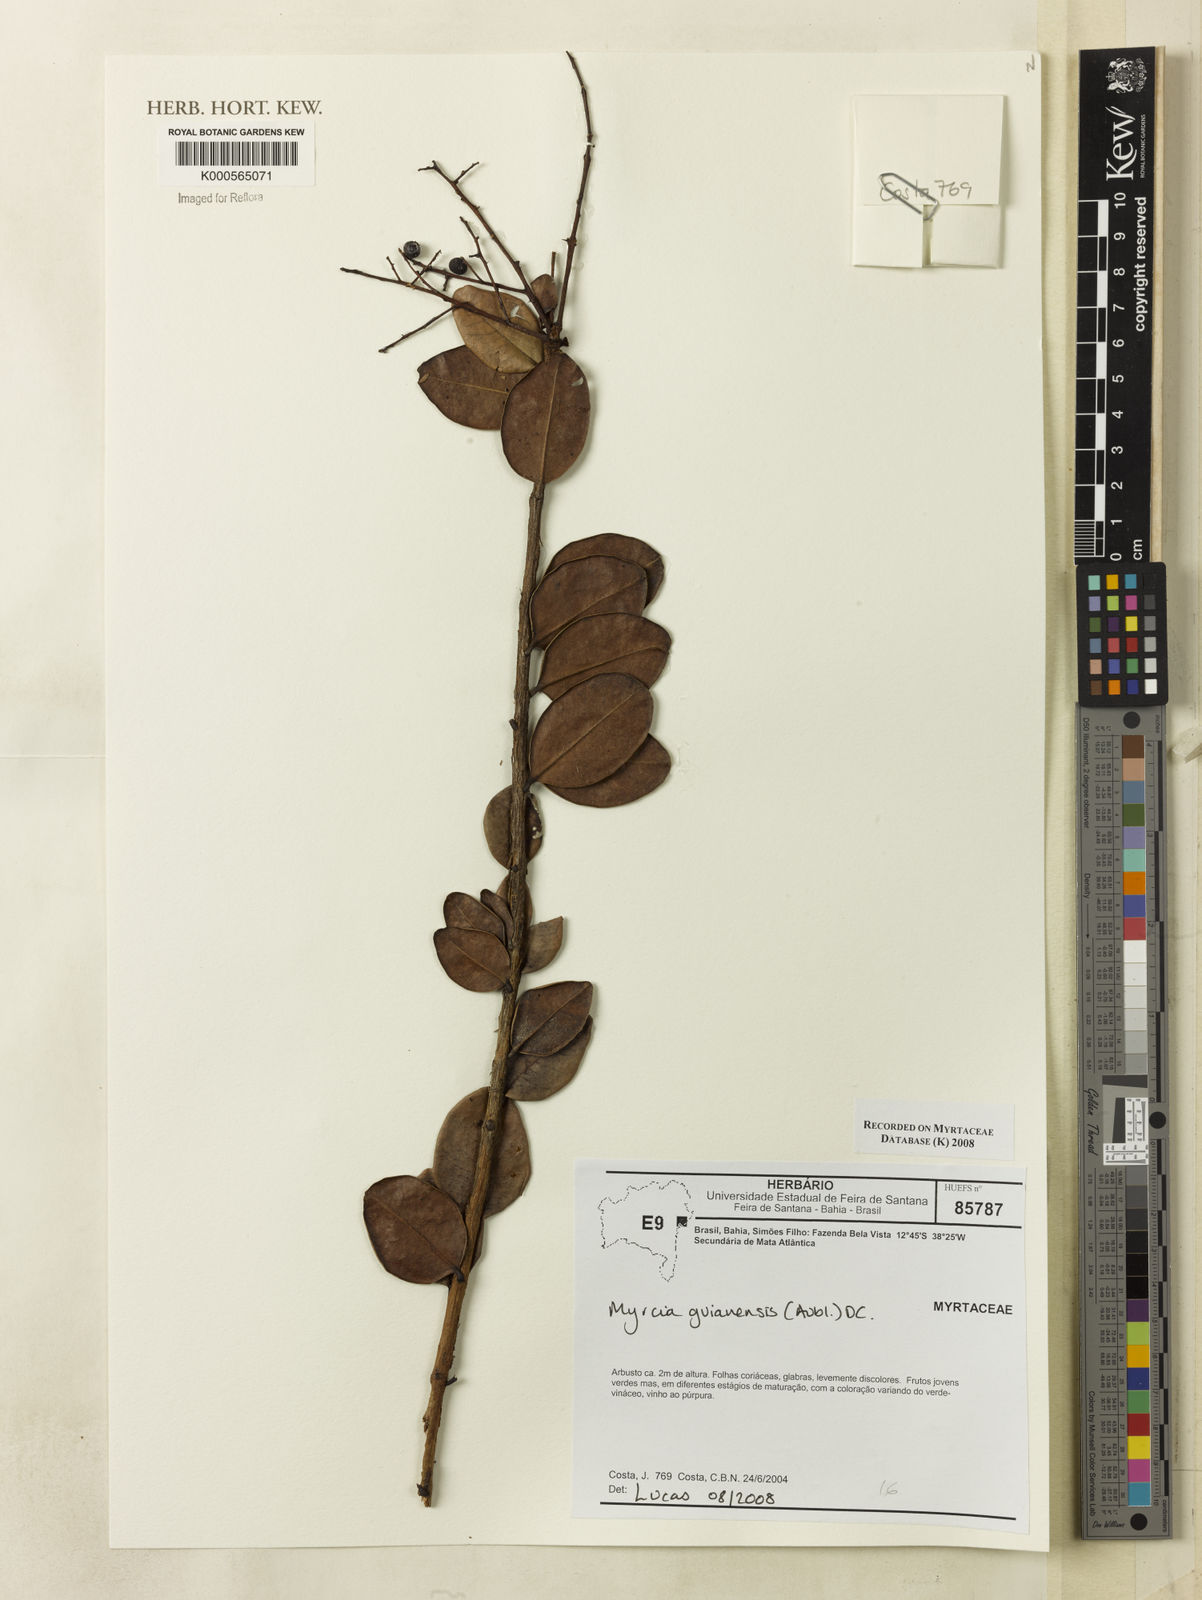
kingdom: Plantae
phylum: Tracheophyta
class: Magnoliopsida
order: Myrtales
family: Myrtaceae
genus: Myrcia
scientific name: Myrcia guianensis
